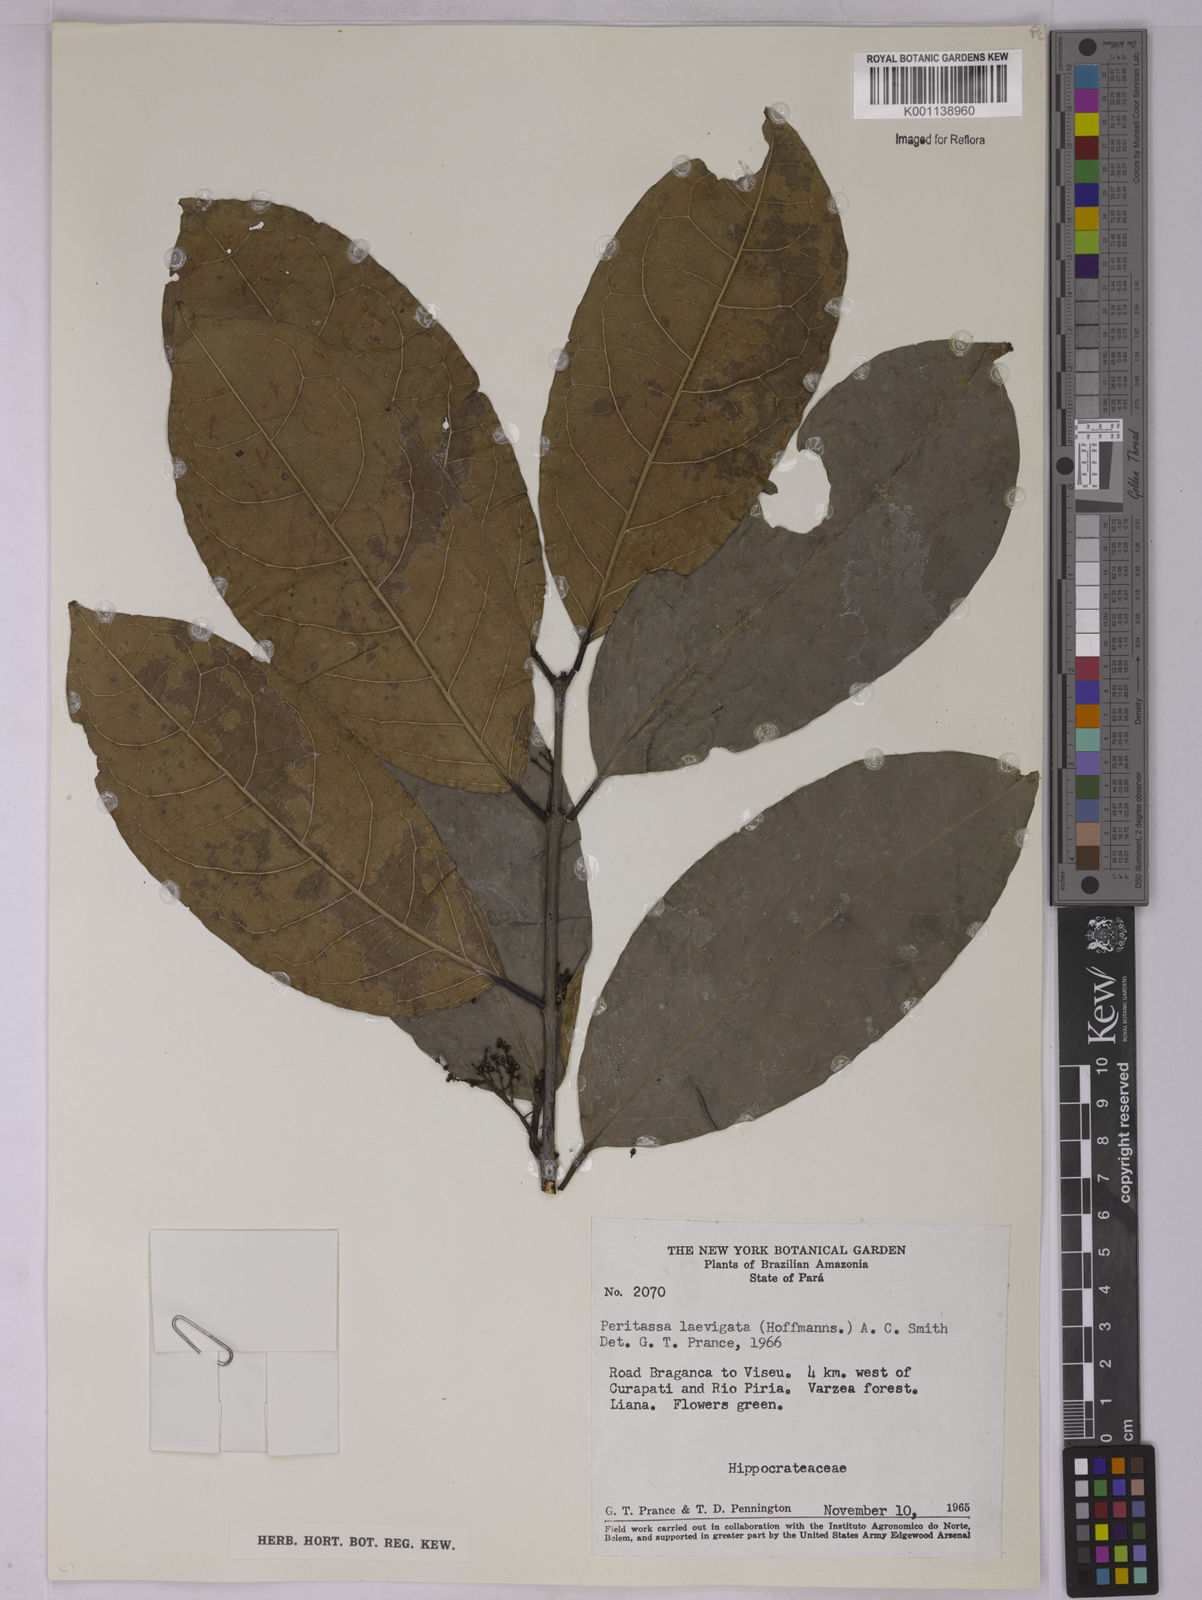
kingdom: Plantae
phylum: Tracheophyta
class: Magnoliopsida
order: Celastrales
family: Celastraceae
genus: Peritassa
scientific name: Peritassa laevigata
